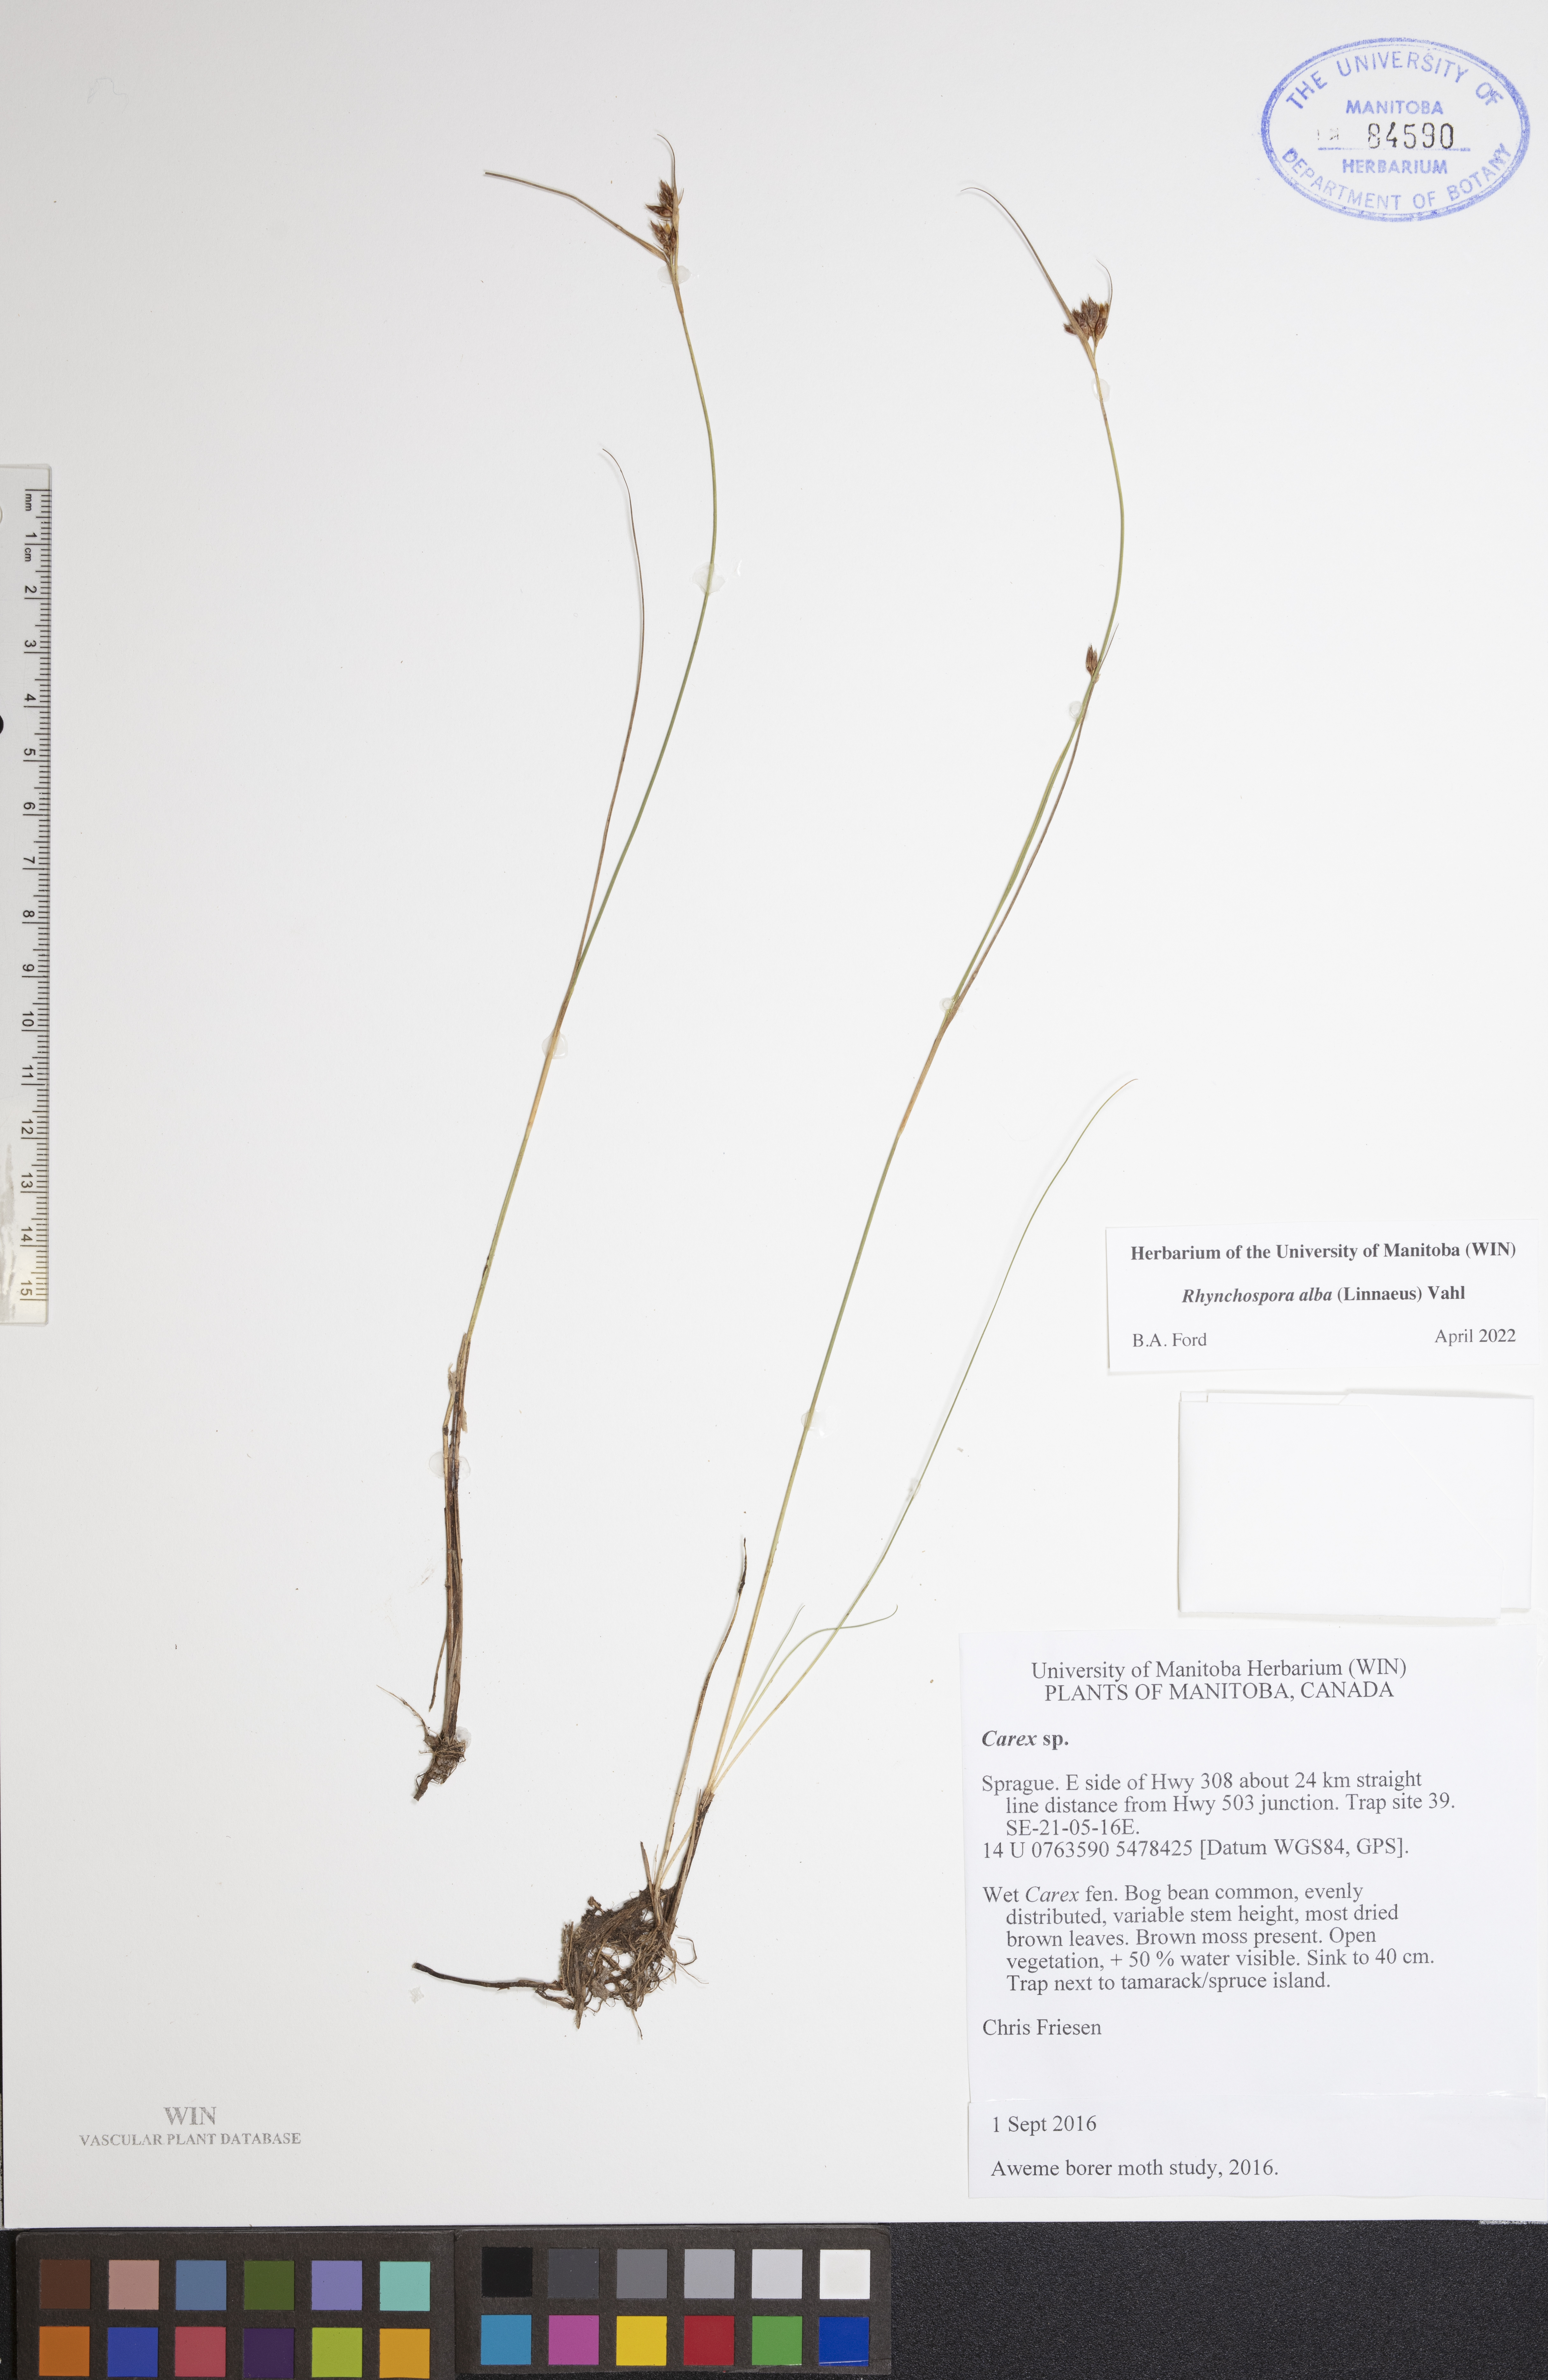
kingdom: Plantae
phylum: Tracheophyta
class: Liliopsida
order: Poales
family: Cyperaceae
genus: Rhynchospora
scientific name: Rhynchospora alba
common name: White beak-sedge
